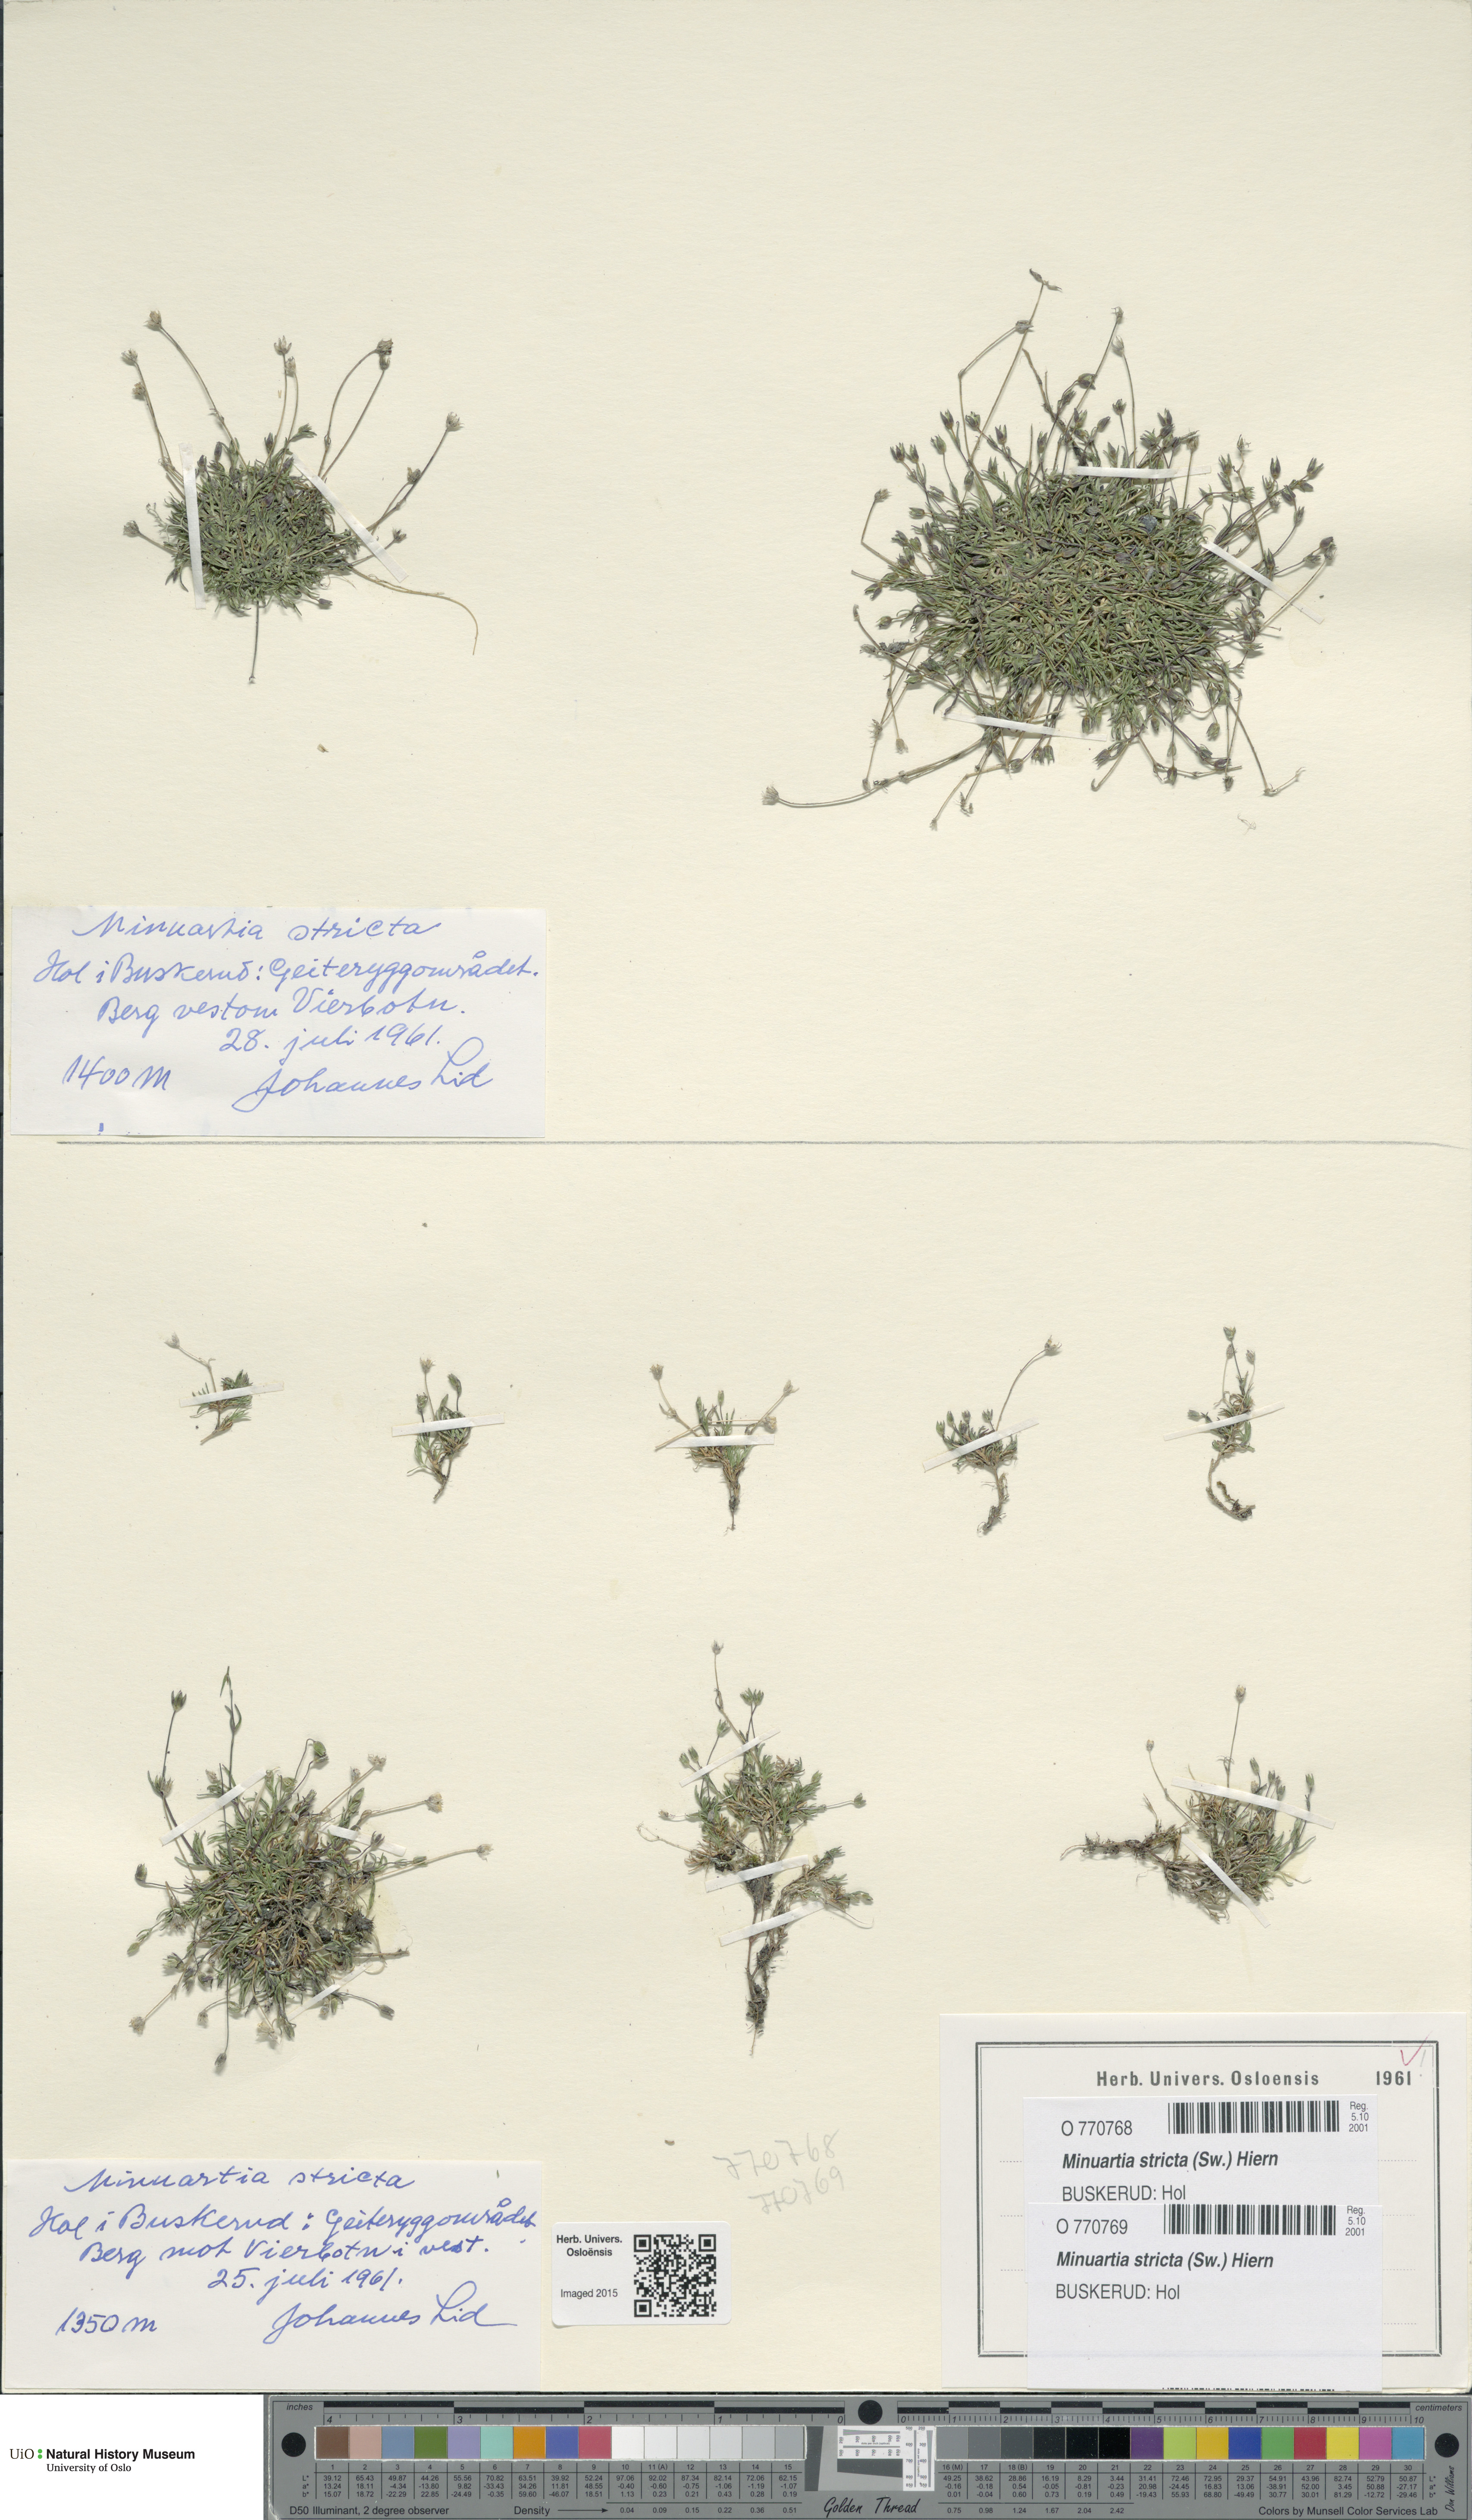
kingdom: Plantae
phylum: Tracheophyta
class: Magnoliopsida
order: Caryophyllales
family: Caryophyllaceae
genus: Sabulina
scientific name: Sabulina stricta
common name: Bog sandwort
